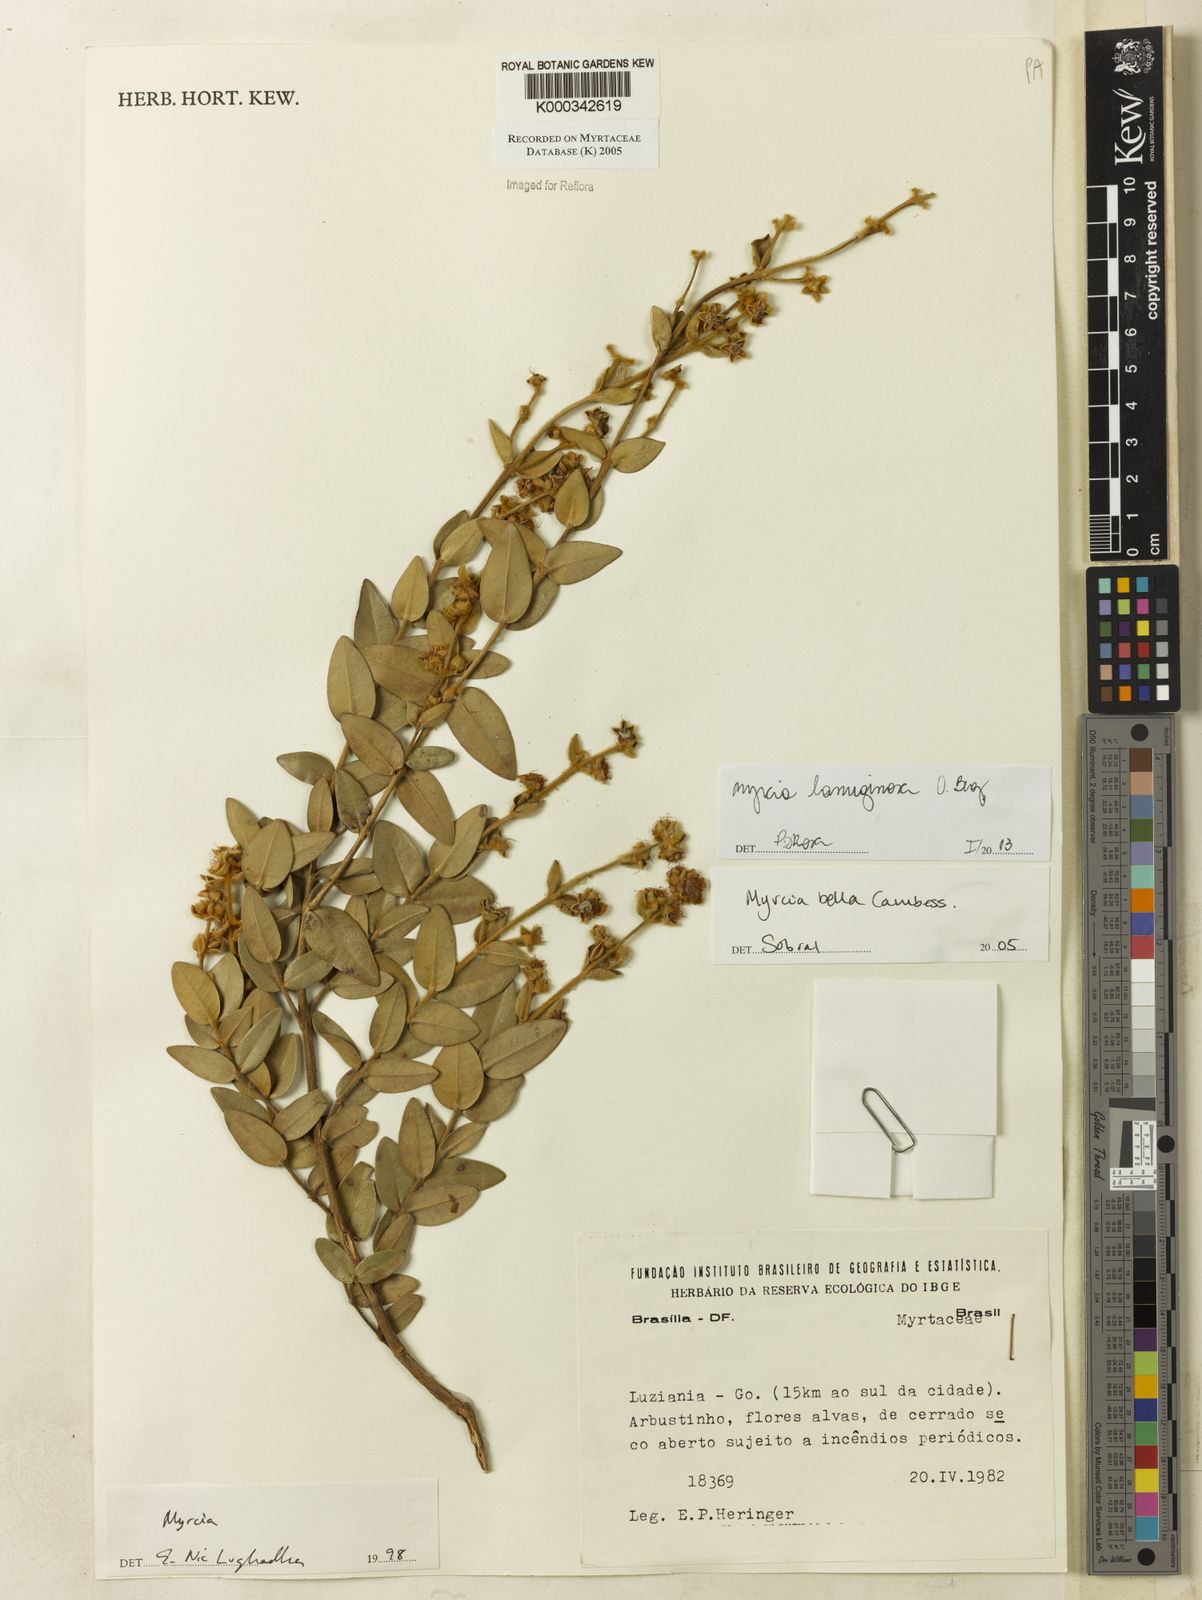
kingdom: Plantae
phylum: Tracheophyta
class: Magnoliopsida
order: Myrtales
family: Myrtaceae
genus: Myrcia
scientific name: Myrcia bella
